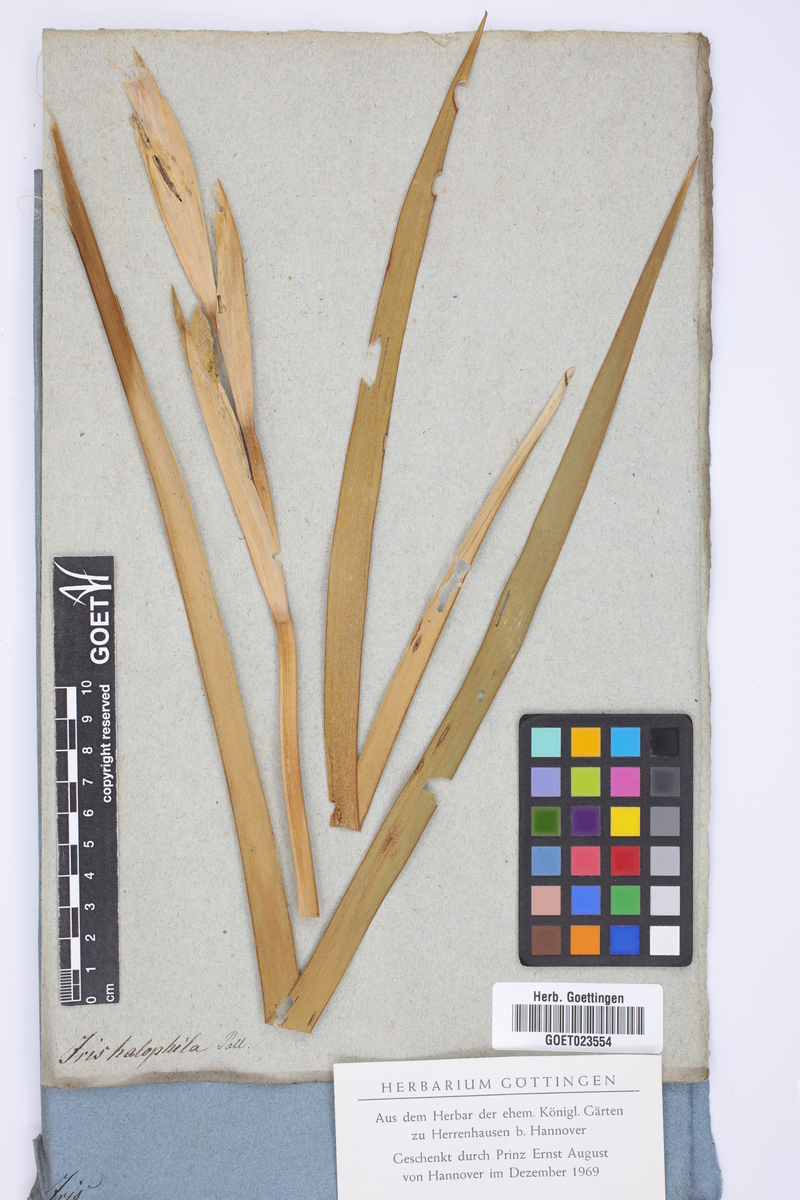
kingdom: Plantae
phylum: Tracheophyta
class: Liliopsida
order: Asparagales
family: Iridaceae
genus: Iris
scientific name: Iris halophila
